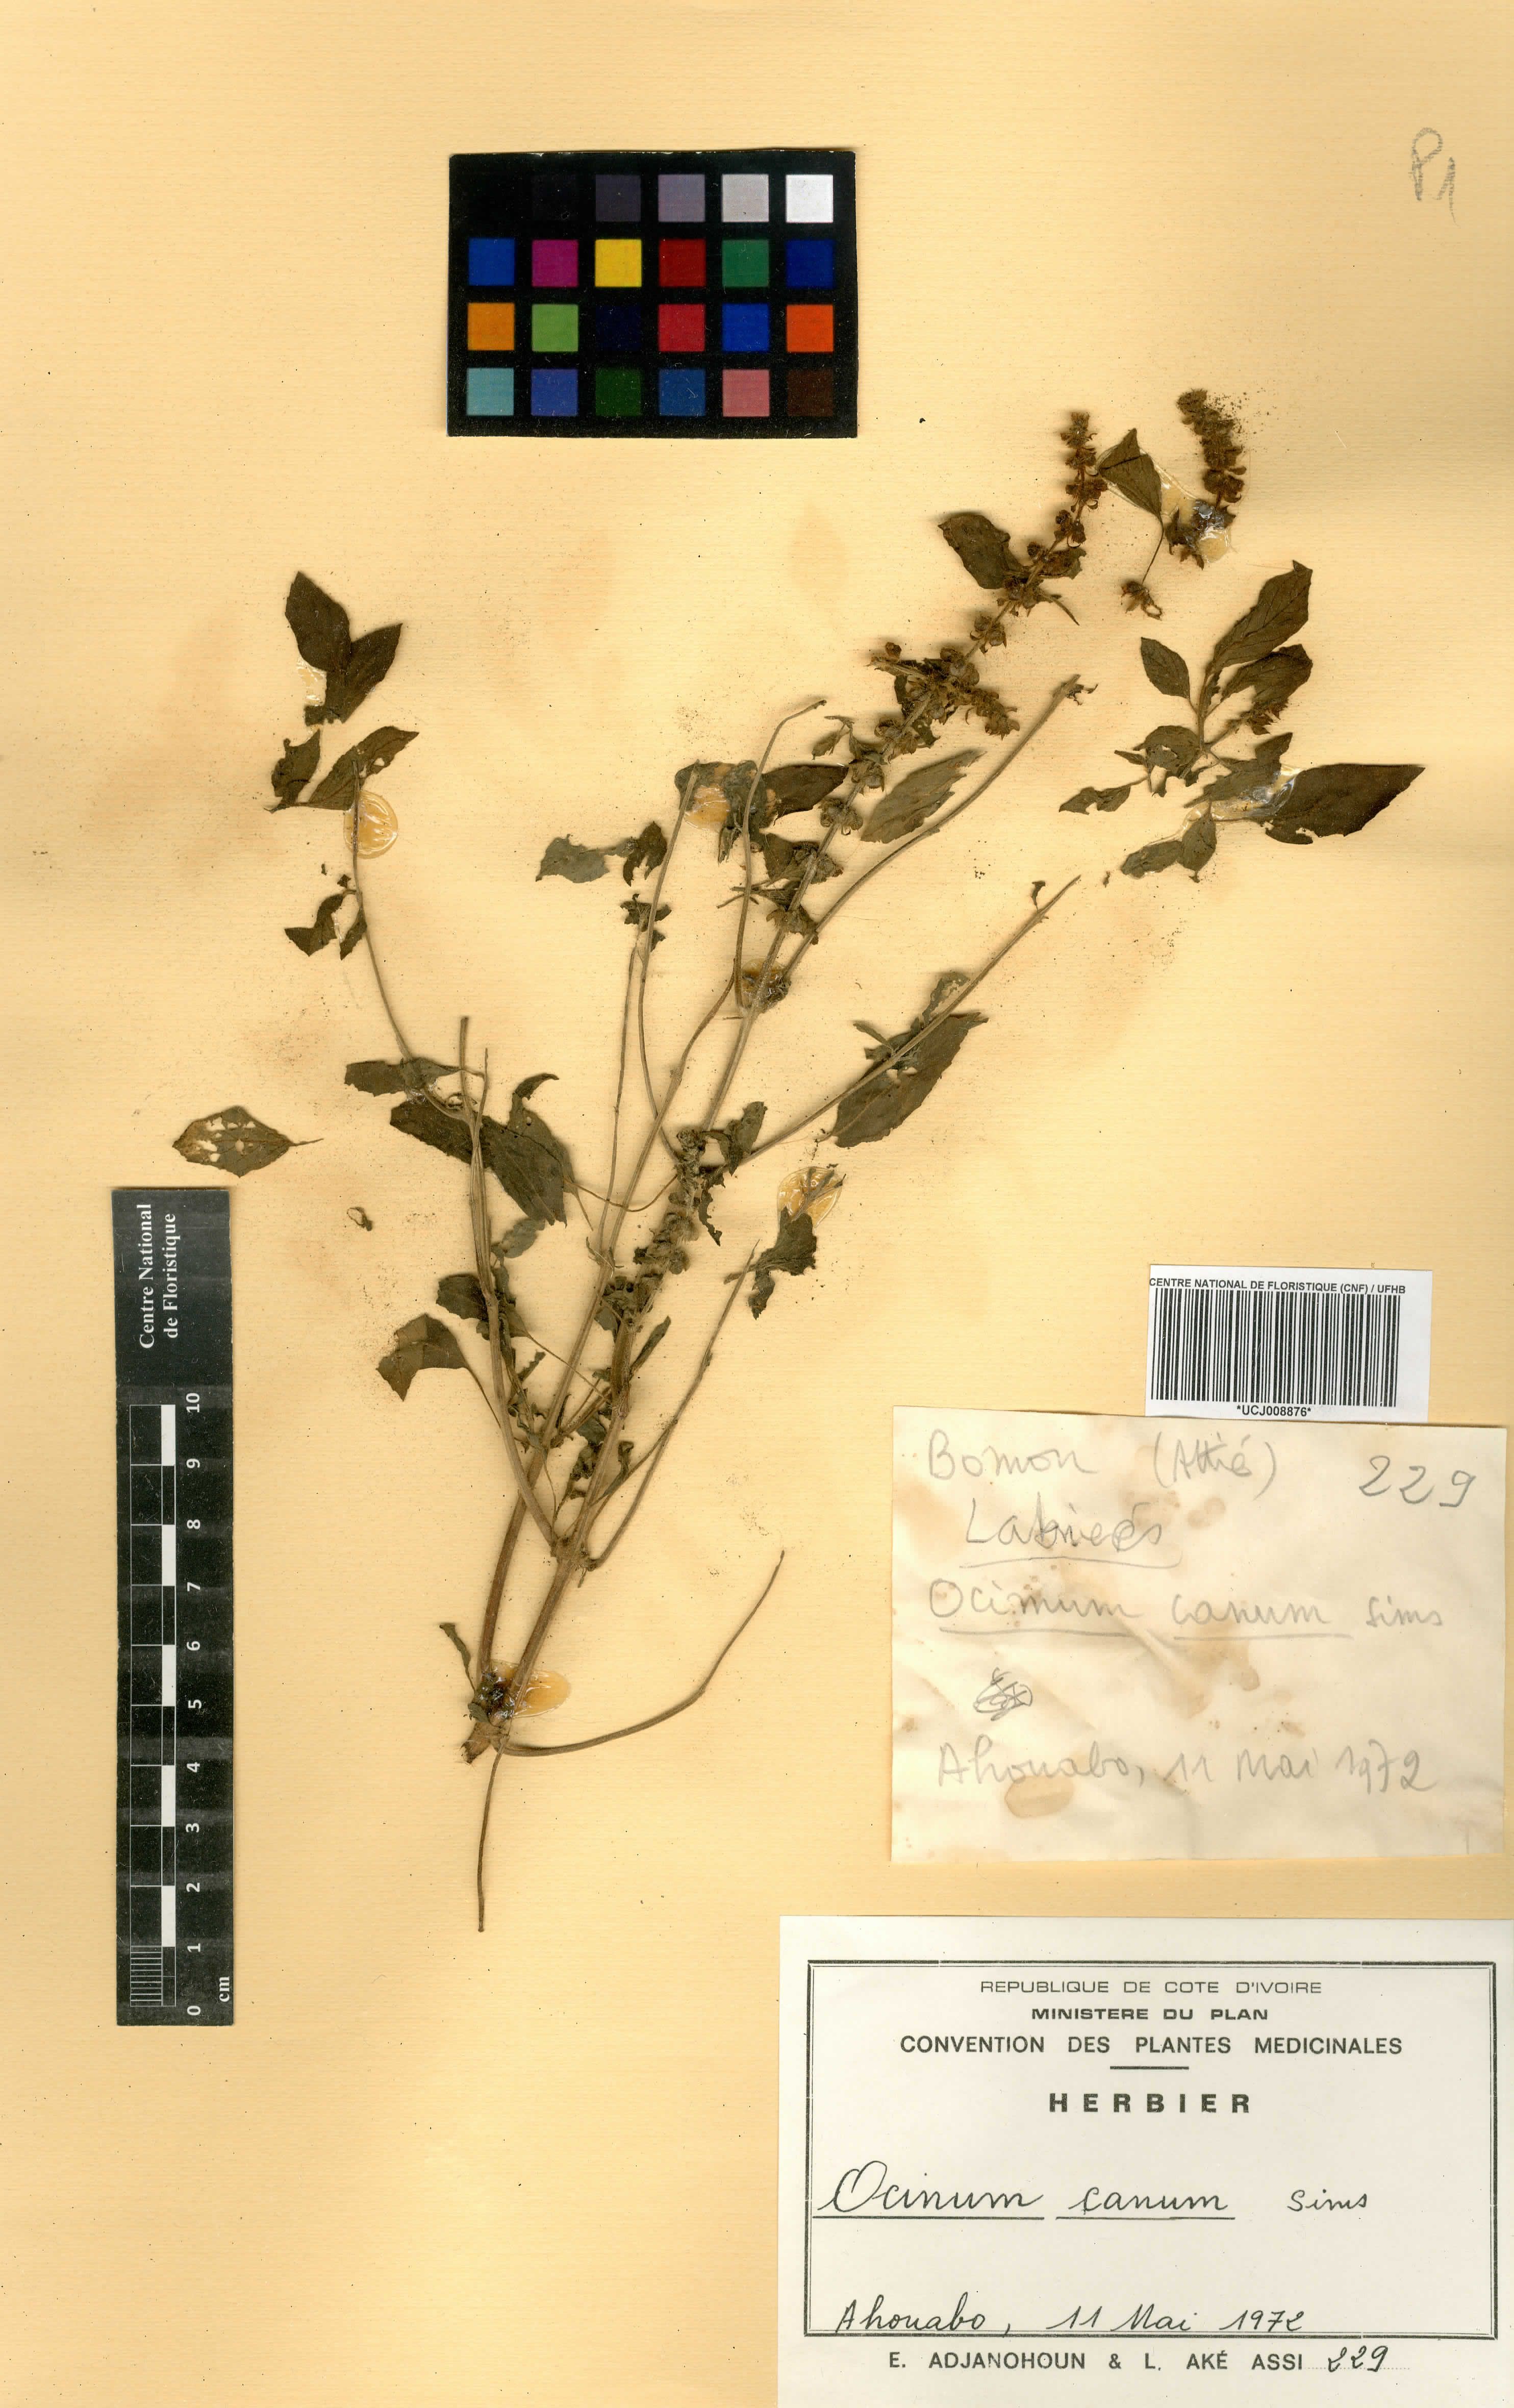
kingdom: Plantae
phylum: Tracheophyta
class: Magnoliopsida
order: Lamiales
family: Lamiaceae
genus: Ocimum
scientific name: Ocimum americanum
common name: American basil
